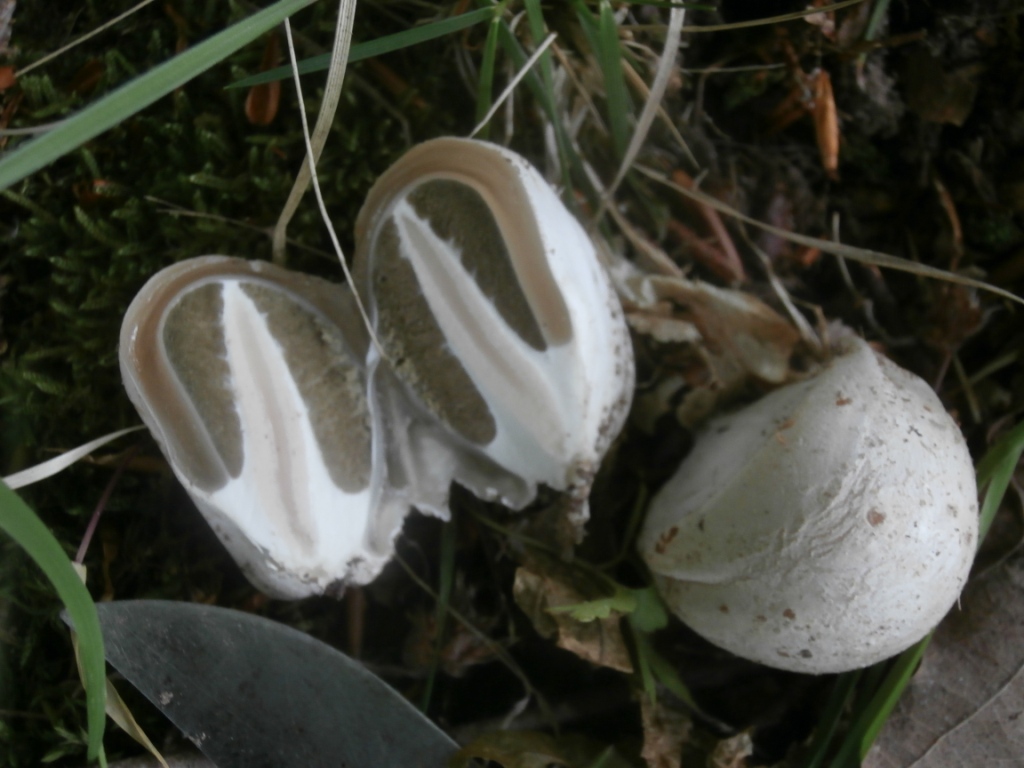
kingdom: Fungi
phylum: Basidiomycota
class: Agaricomycetes
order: Phallales
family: Phallaceae
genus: Phallus
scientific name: Phallus impudicus
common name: almindelig stinksvamp
